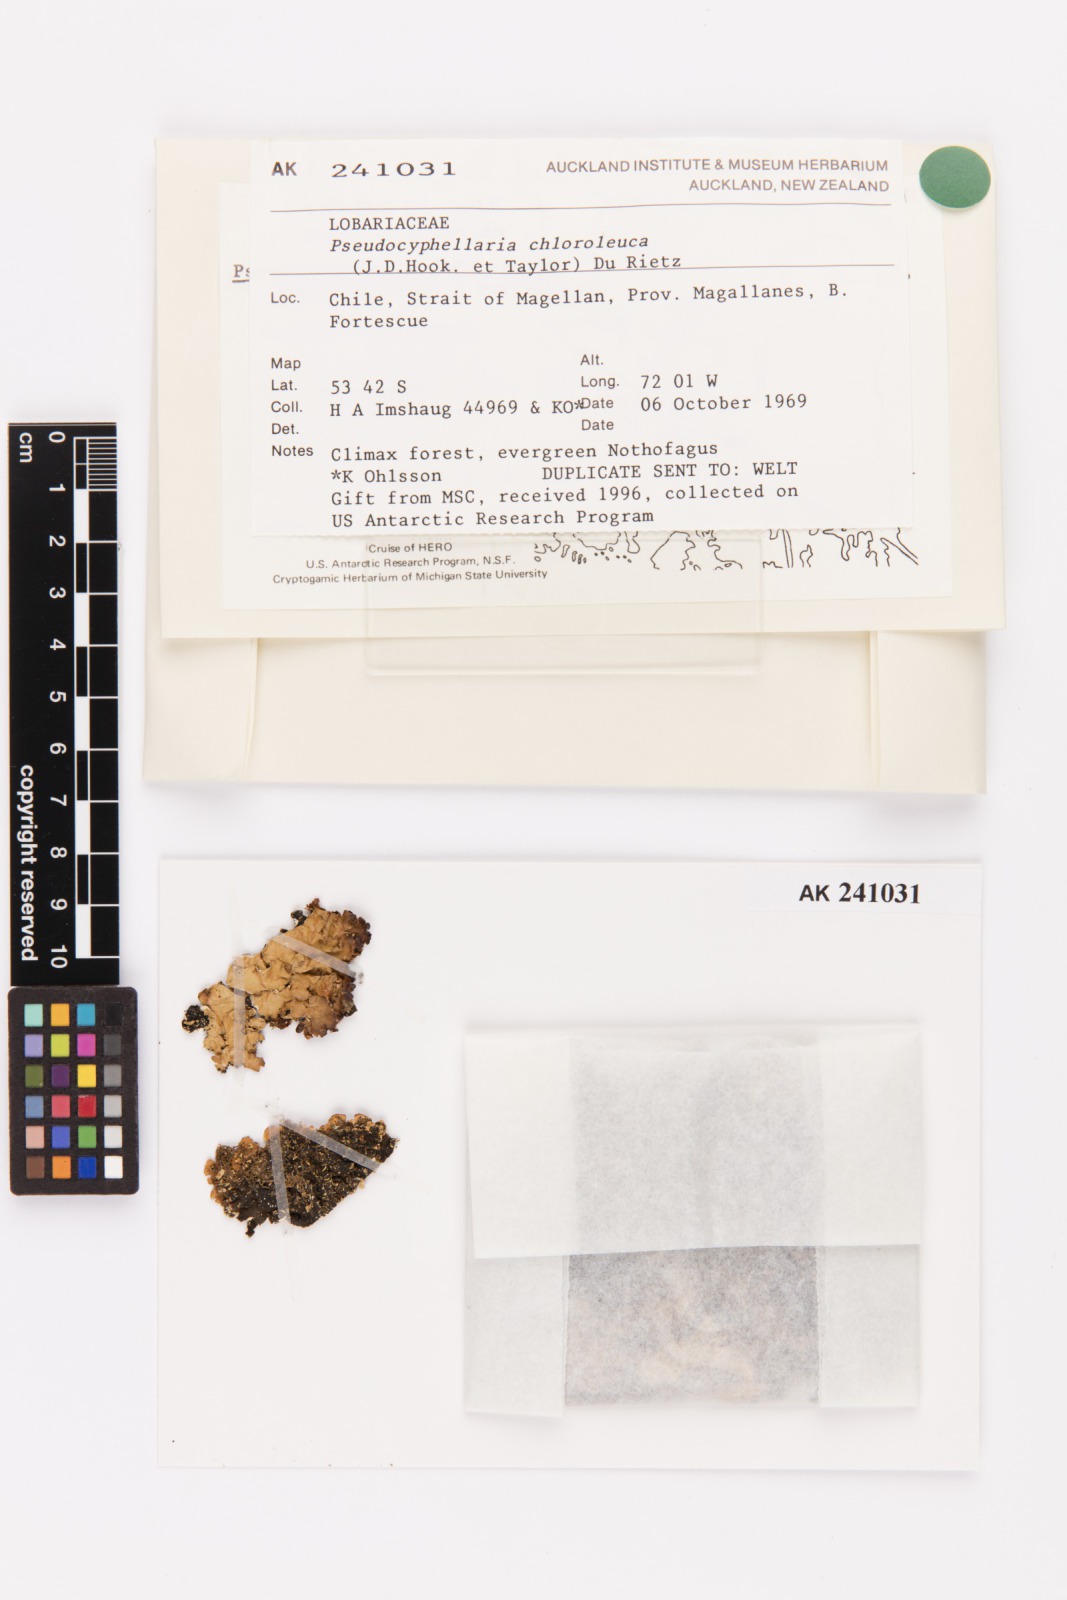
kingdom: Fungi
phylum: Ascomycota
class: Lecanoromycetes
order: Peltigerales
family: Lobariaceae
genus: Pseudocyphellaria
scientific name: Pseudocyphellaria chloroleuca
